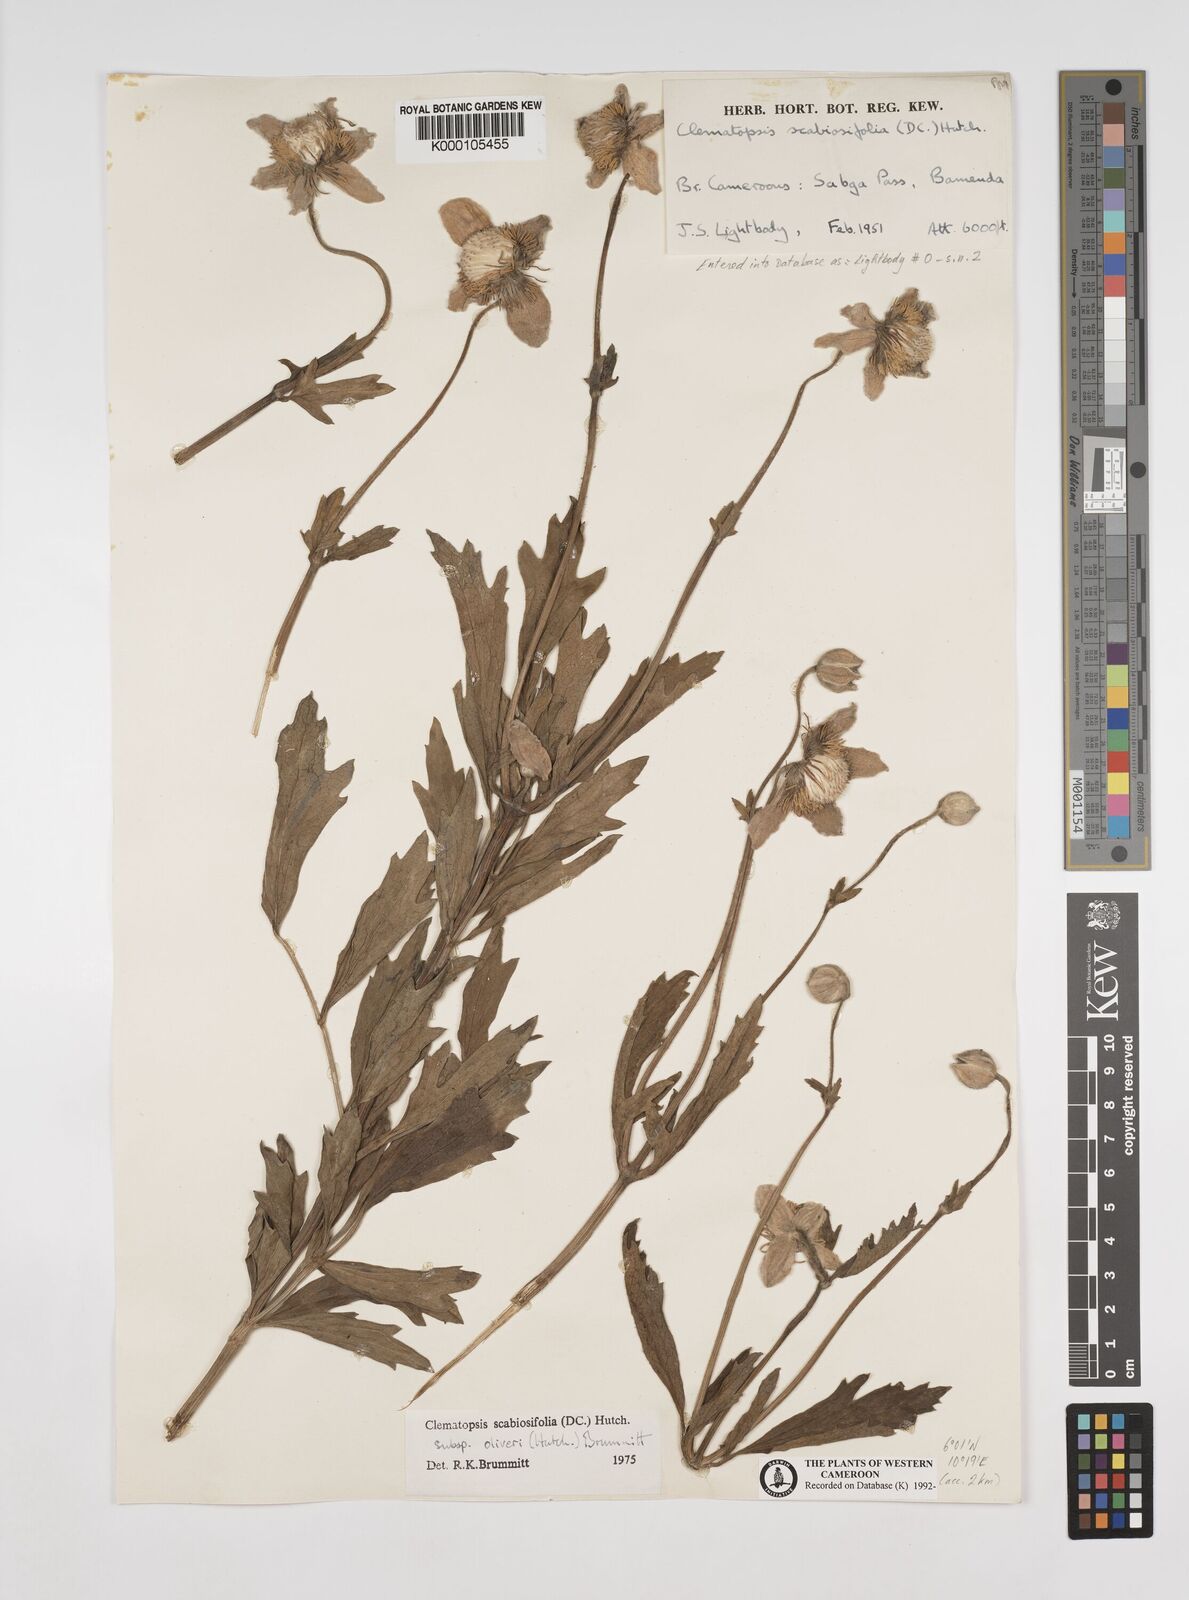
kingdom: Plantae
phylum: Tracheophyta
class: Magnoliopsida
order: Ranunculales
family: Ranunculaceae
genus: Clematis
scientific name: Clematis villosa
